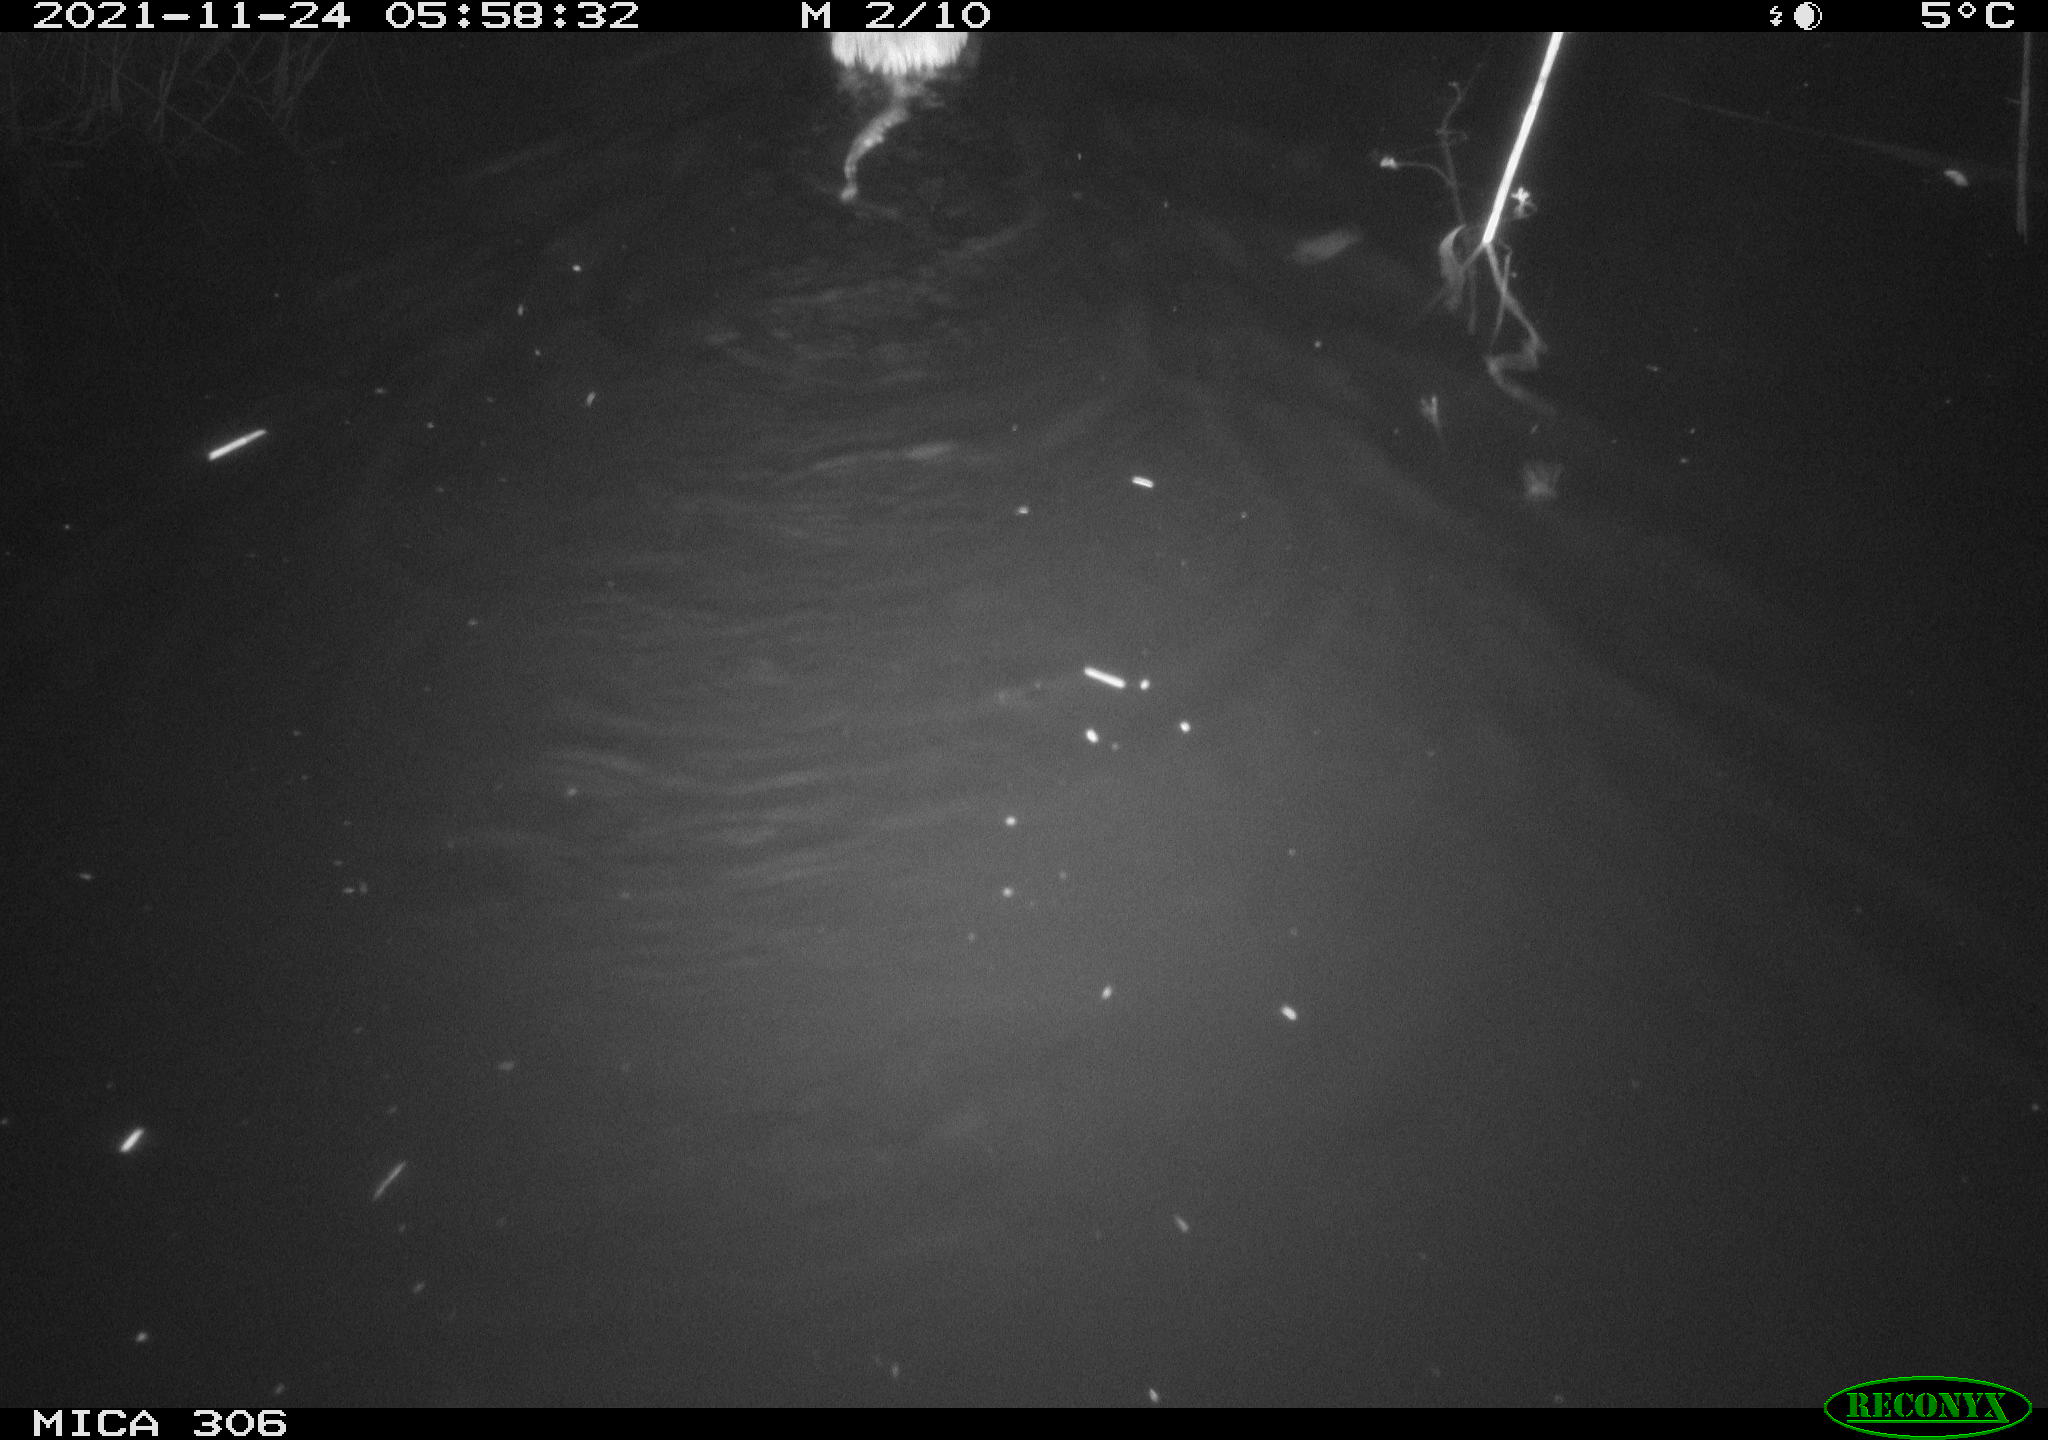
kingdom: Animalia
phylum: Chordata
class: Mammalia
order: Rodentia
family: Cricetidae
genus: Ondatra
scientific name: Ondatra zibethicus
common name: Muskrat
